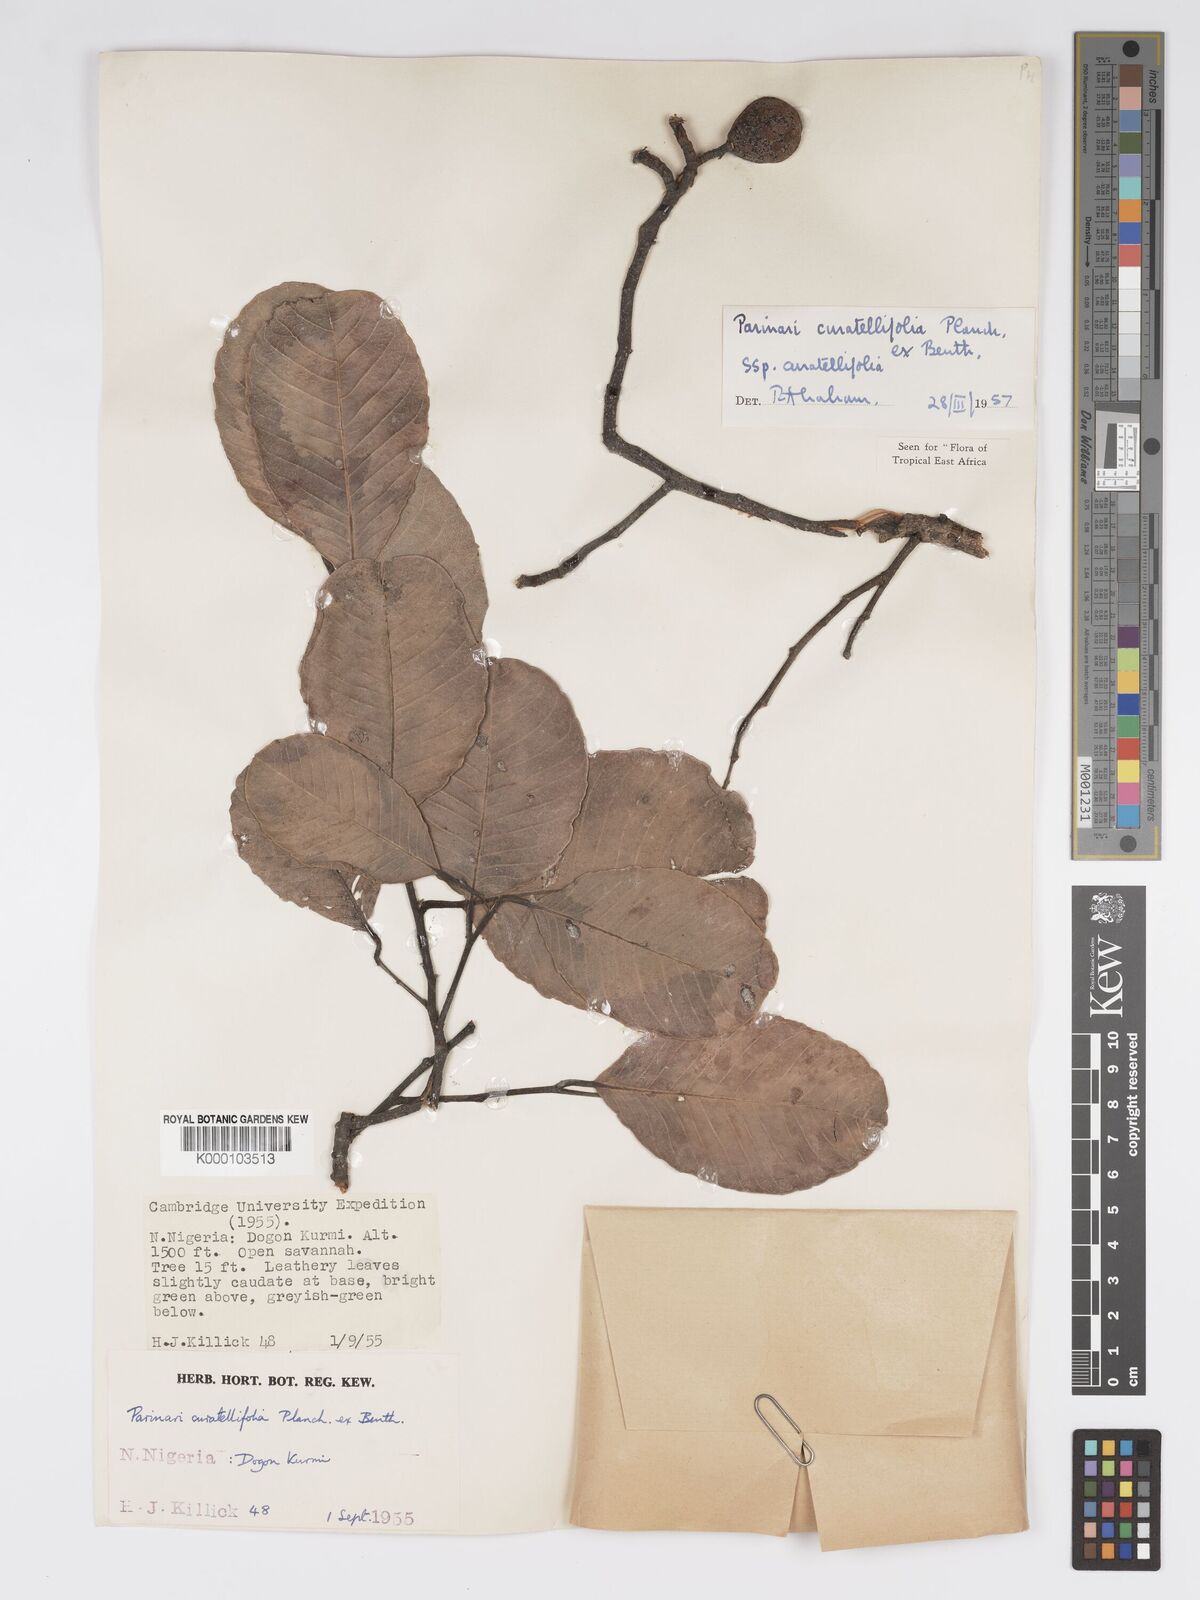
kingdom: Plantae
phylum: Tracheophyta
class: Magnoliopsida
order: Malpighiales
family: Chrysobalanaceae
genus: Parinari
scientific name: Parinari curatellifolia
